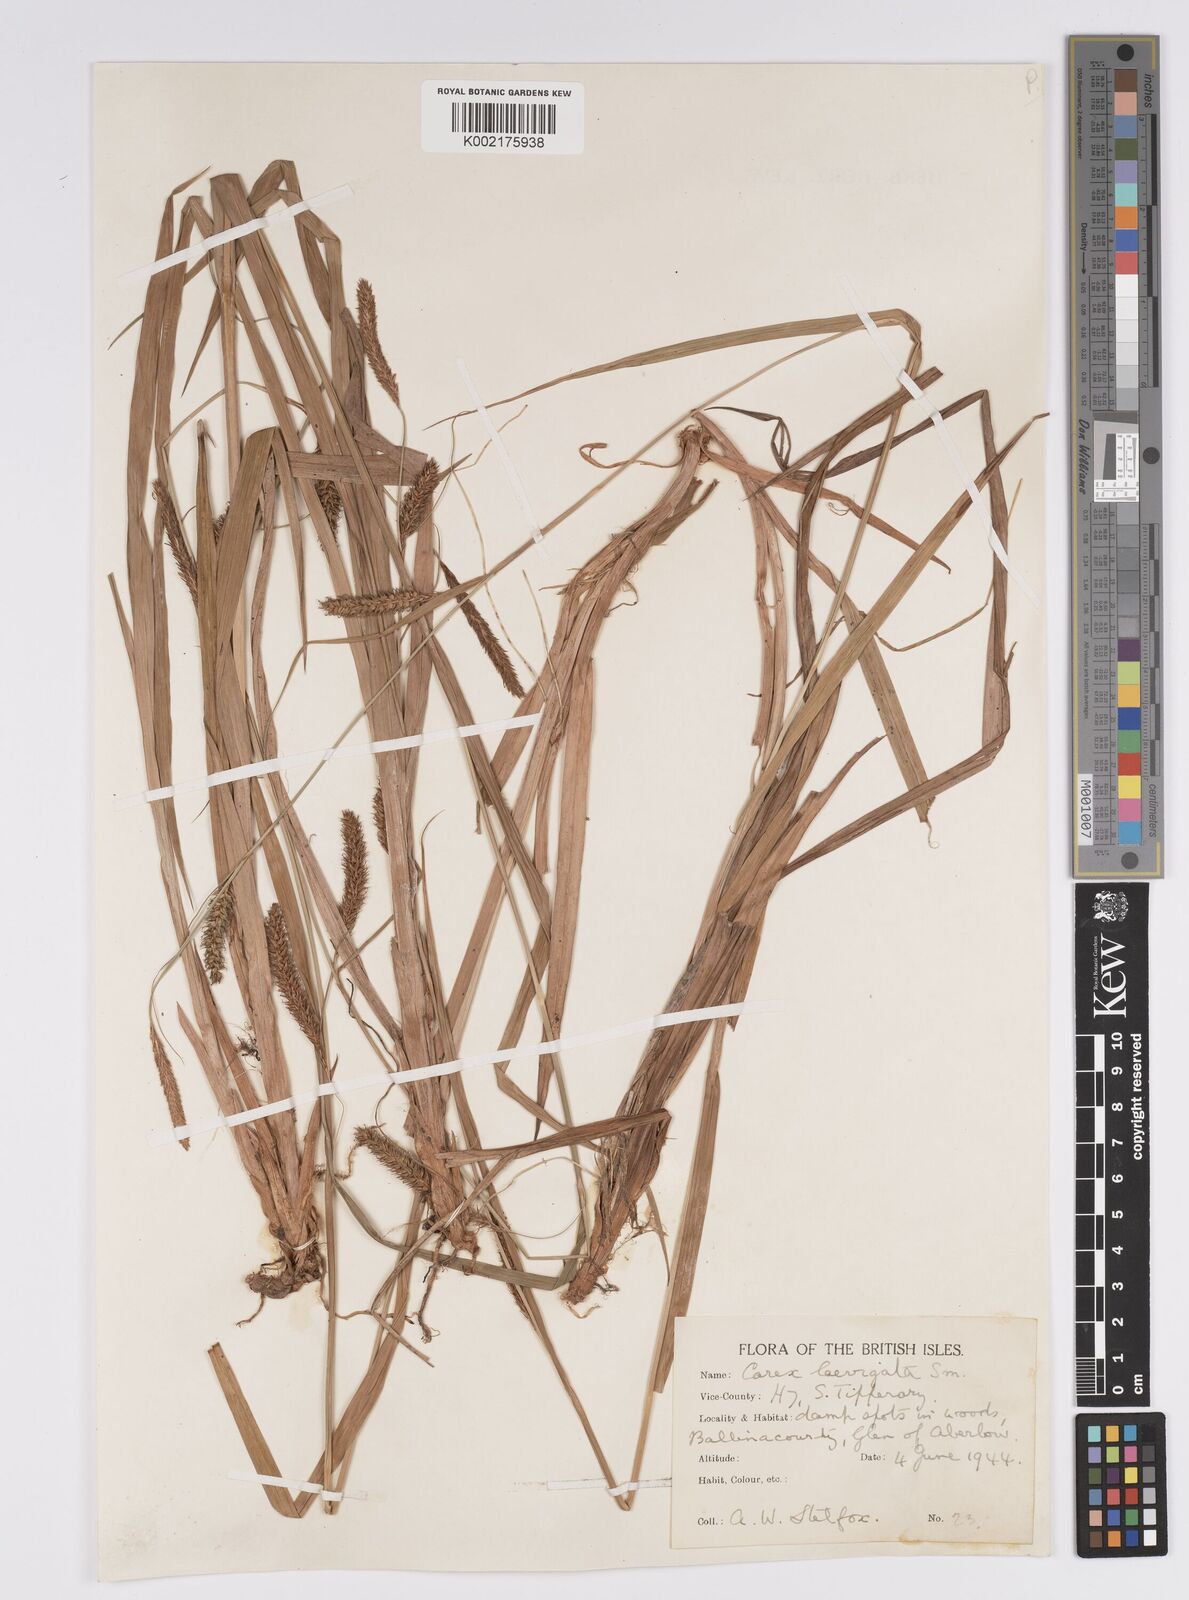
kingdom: Plantae
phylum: Tracheophyta
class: Liliopsida
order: Poales
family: Cyperaceae
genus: Carex
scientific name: Carex laevigata
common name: Smooth-stalked sedge
